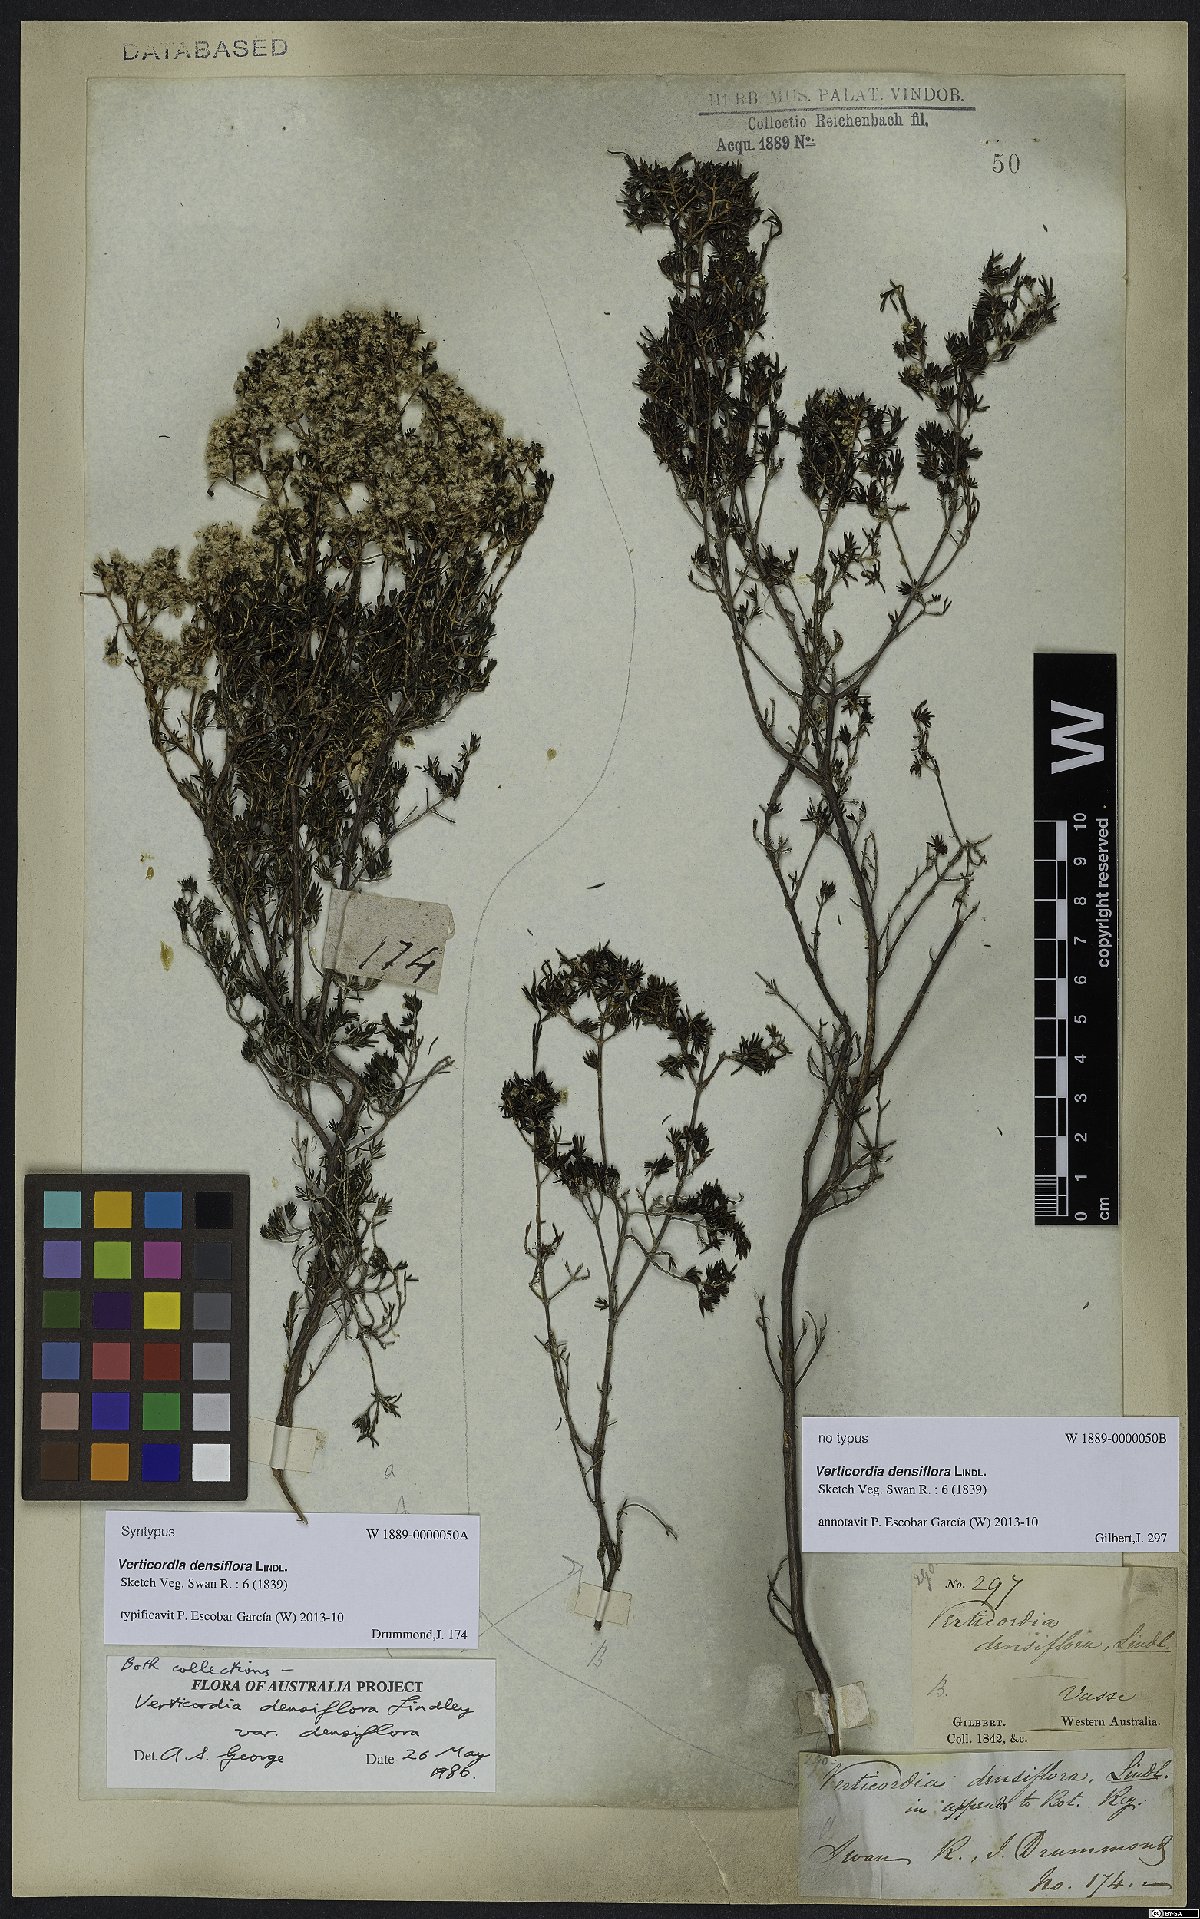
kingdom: Plantae
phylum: Tracheophyta
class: Magnoliopsida
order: Myrtales
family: Myrtaceae
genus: Verticordia
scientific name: Verticordia densiflora
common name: Compact feather-flower
